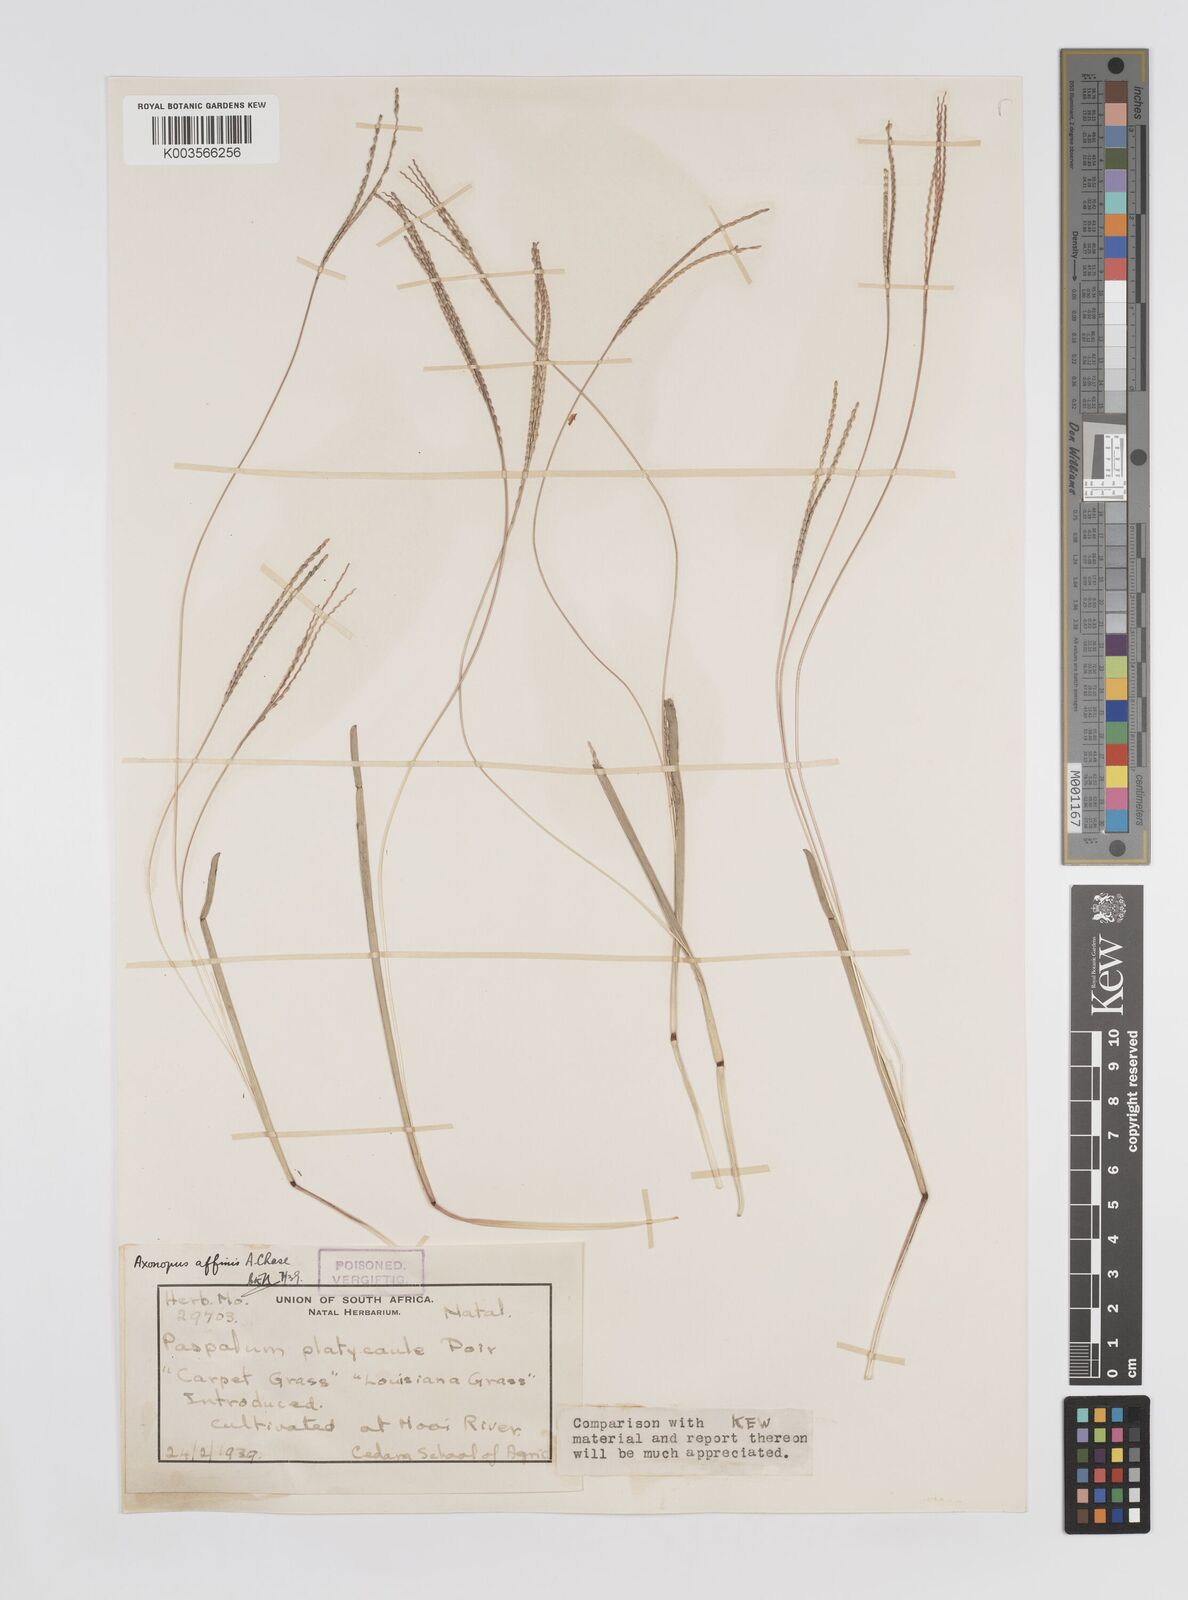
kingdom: Plantae
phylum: Tracheophyta
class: Liliopsida
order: Poales
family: Poaceae
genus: Axonopus
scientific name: Axonopus fissifolius
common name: Common carpetgrass
